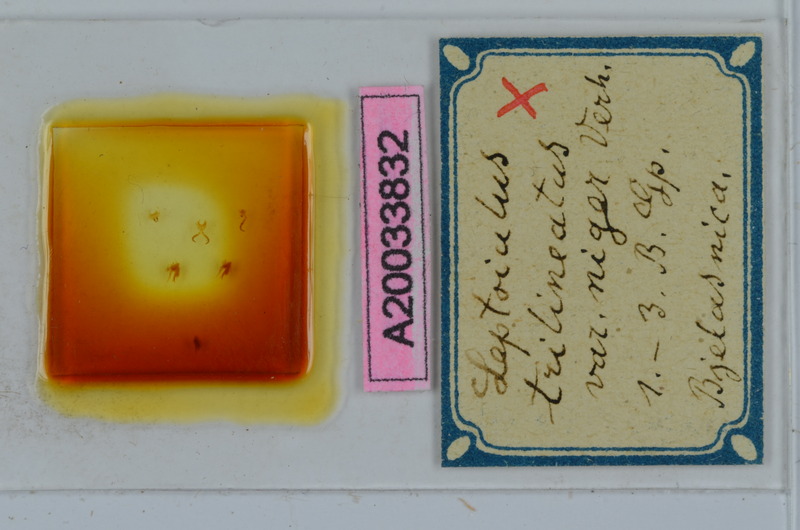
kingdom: Animalia
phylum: Arthropoda
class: Diplopoda
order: Julida
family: Julidae
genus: Leptoiulus
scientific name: Leptoiulus trilineatus
